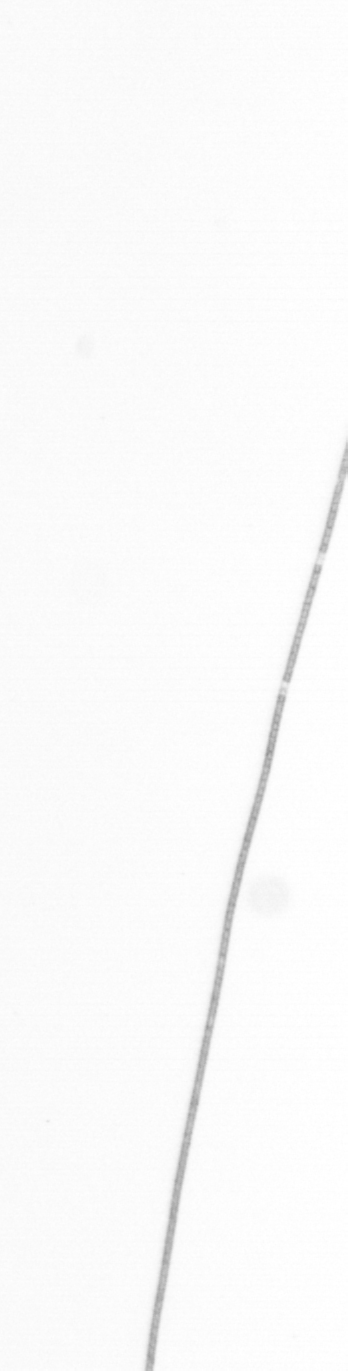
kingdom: Chromista
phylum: Ochrophyta
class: Bacillariophyceae
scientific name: Bacillariophyceae
